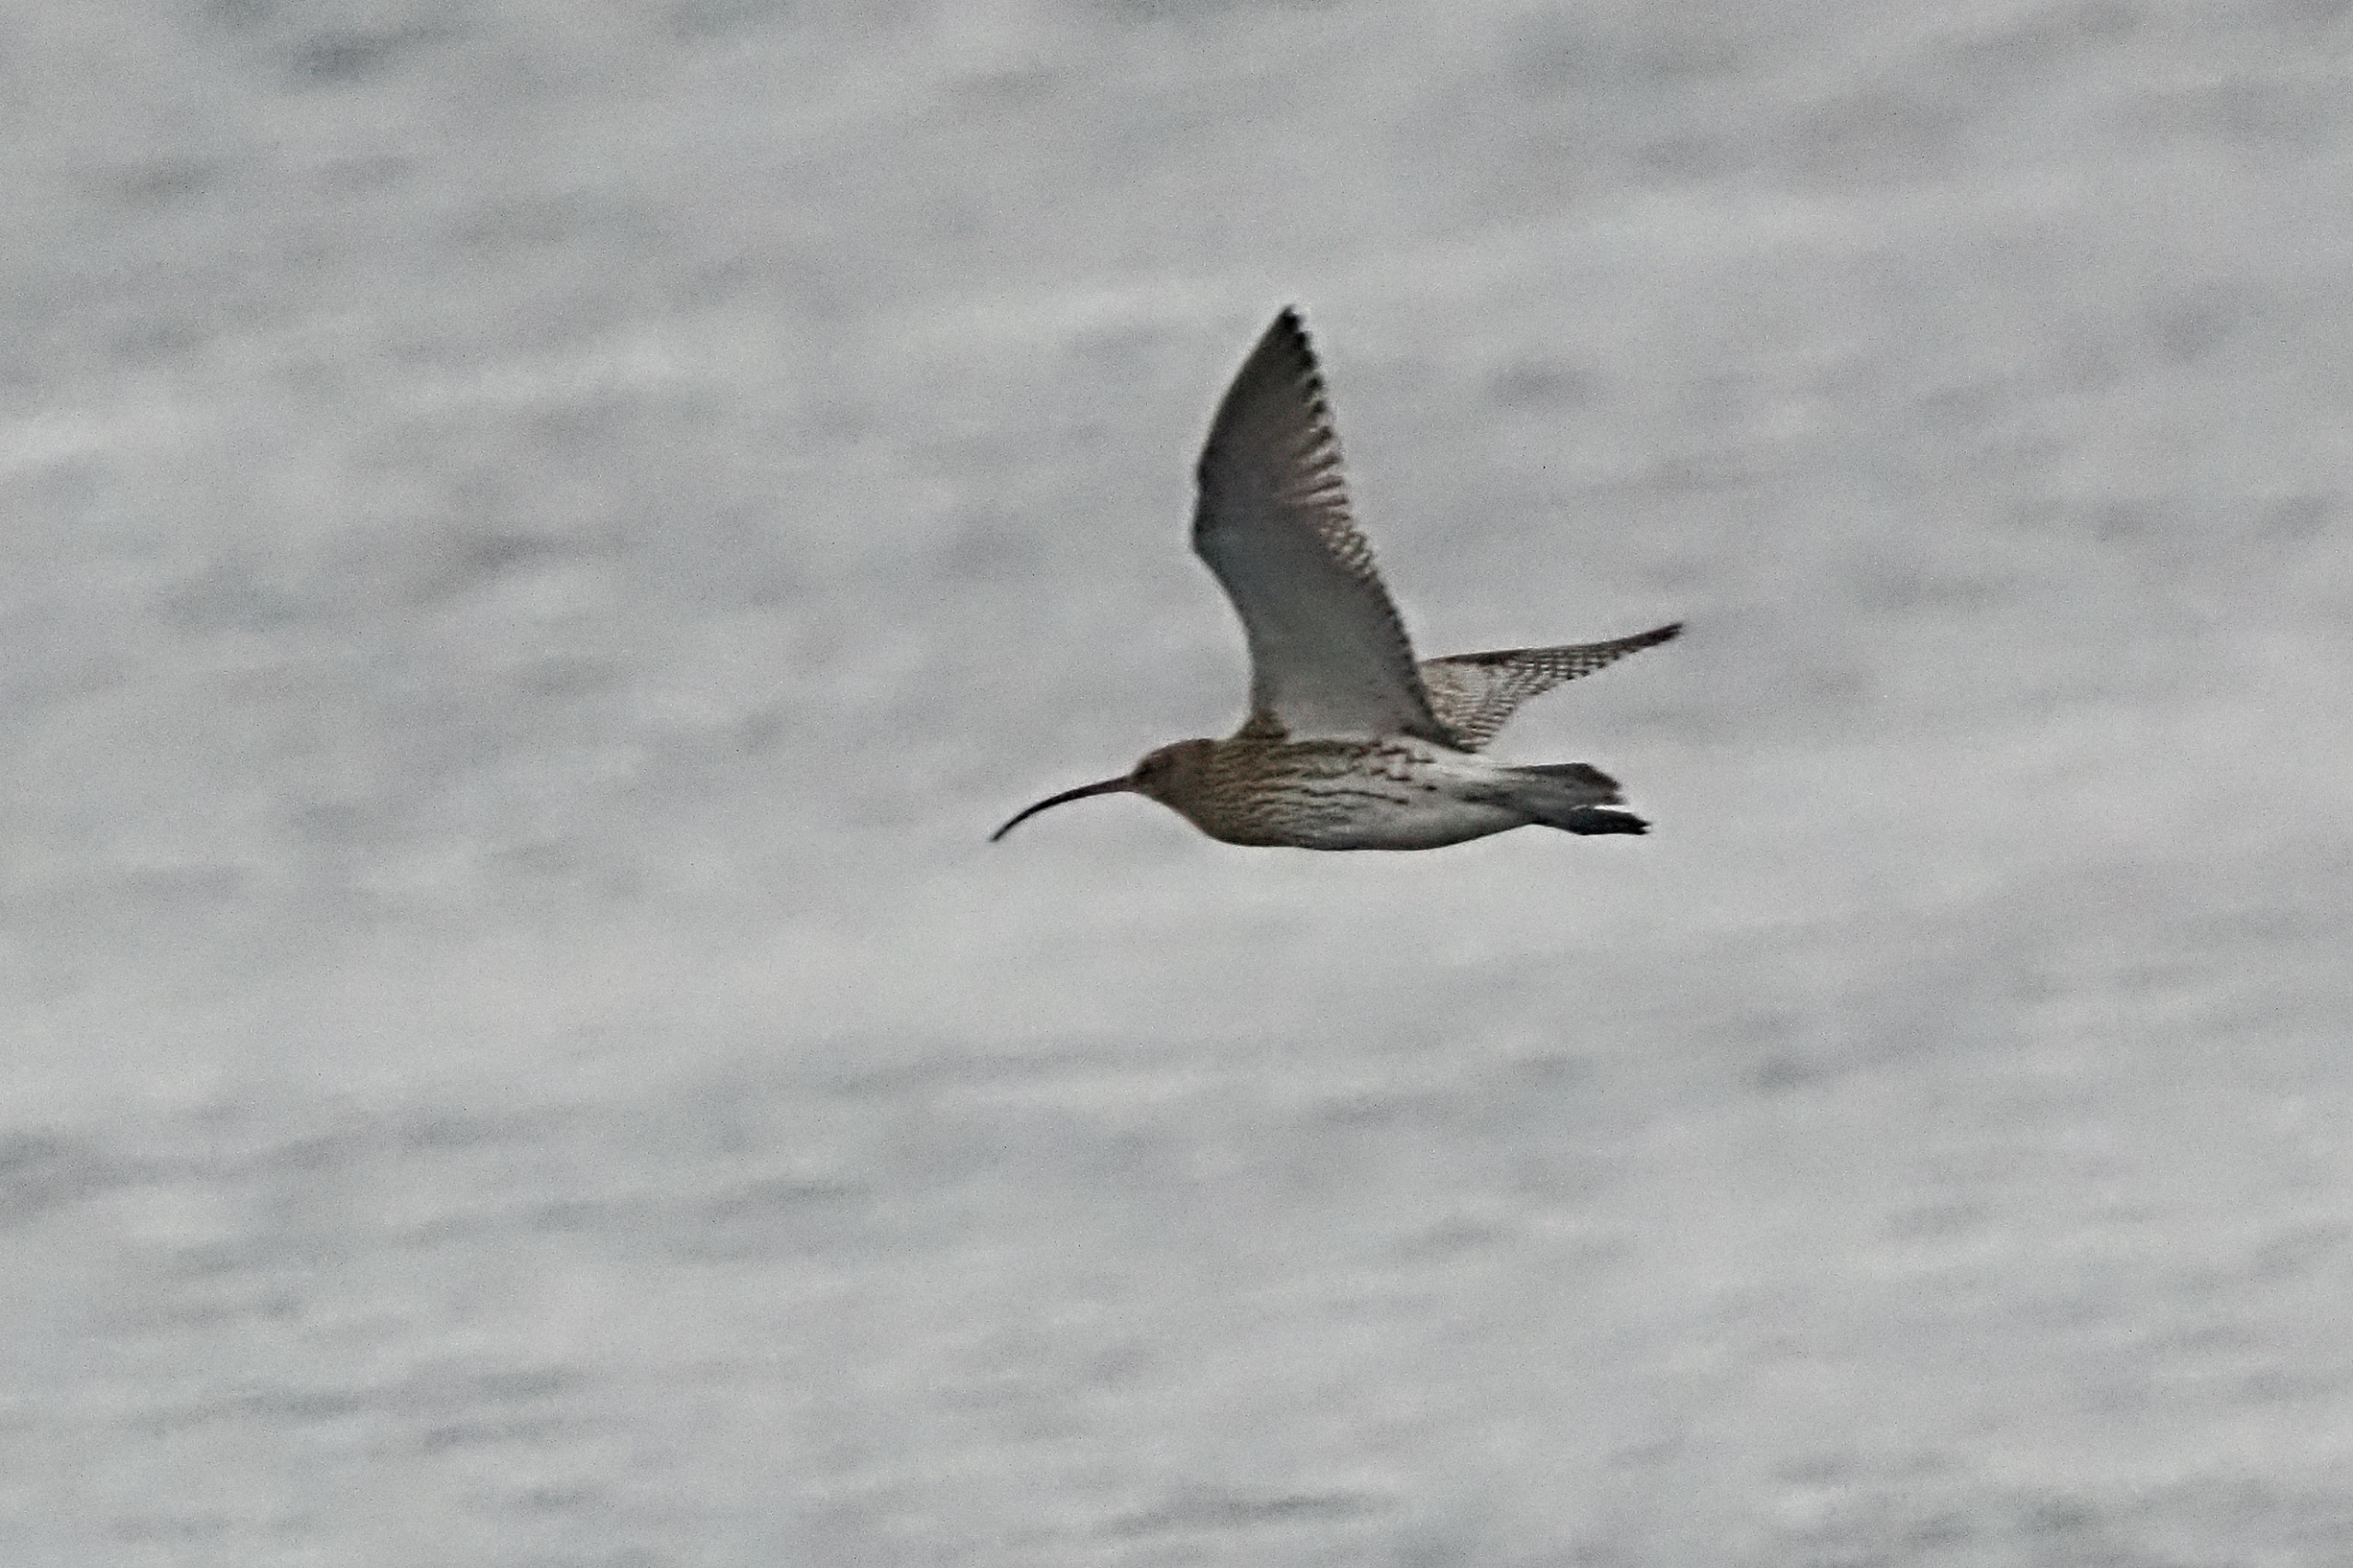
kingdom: Animalia
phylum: Chordata
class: Aves
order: Charadriiformes
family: Scolopacidae
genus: Numenius
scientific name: Numenius arquata
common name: Storspove
